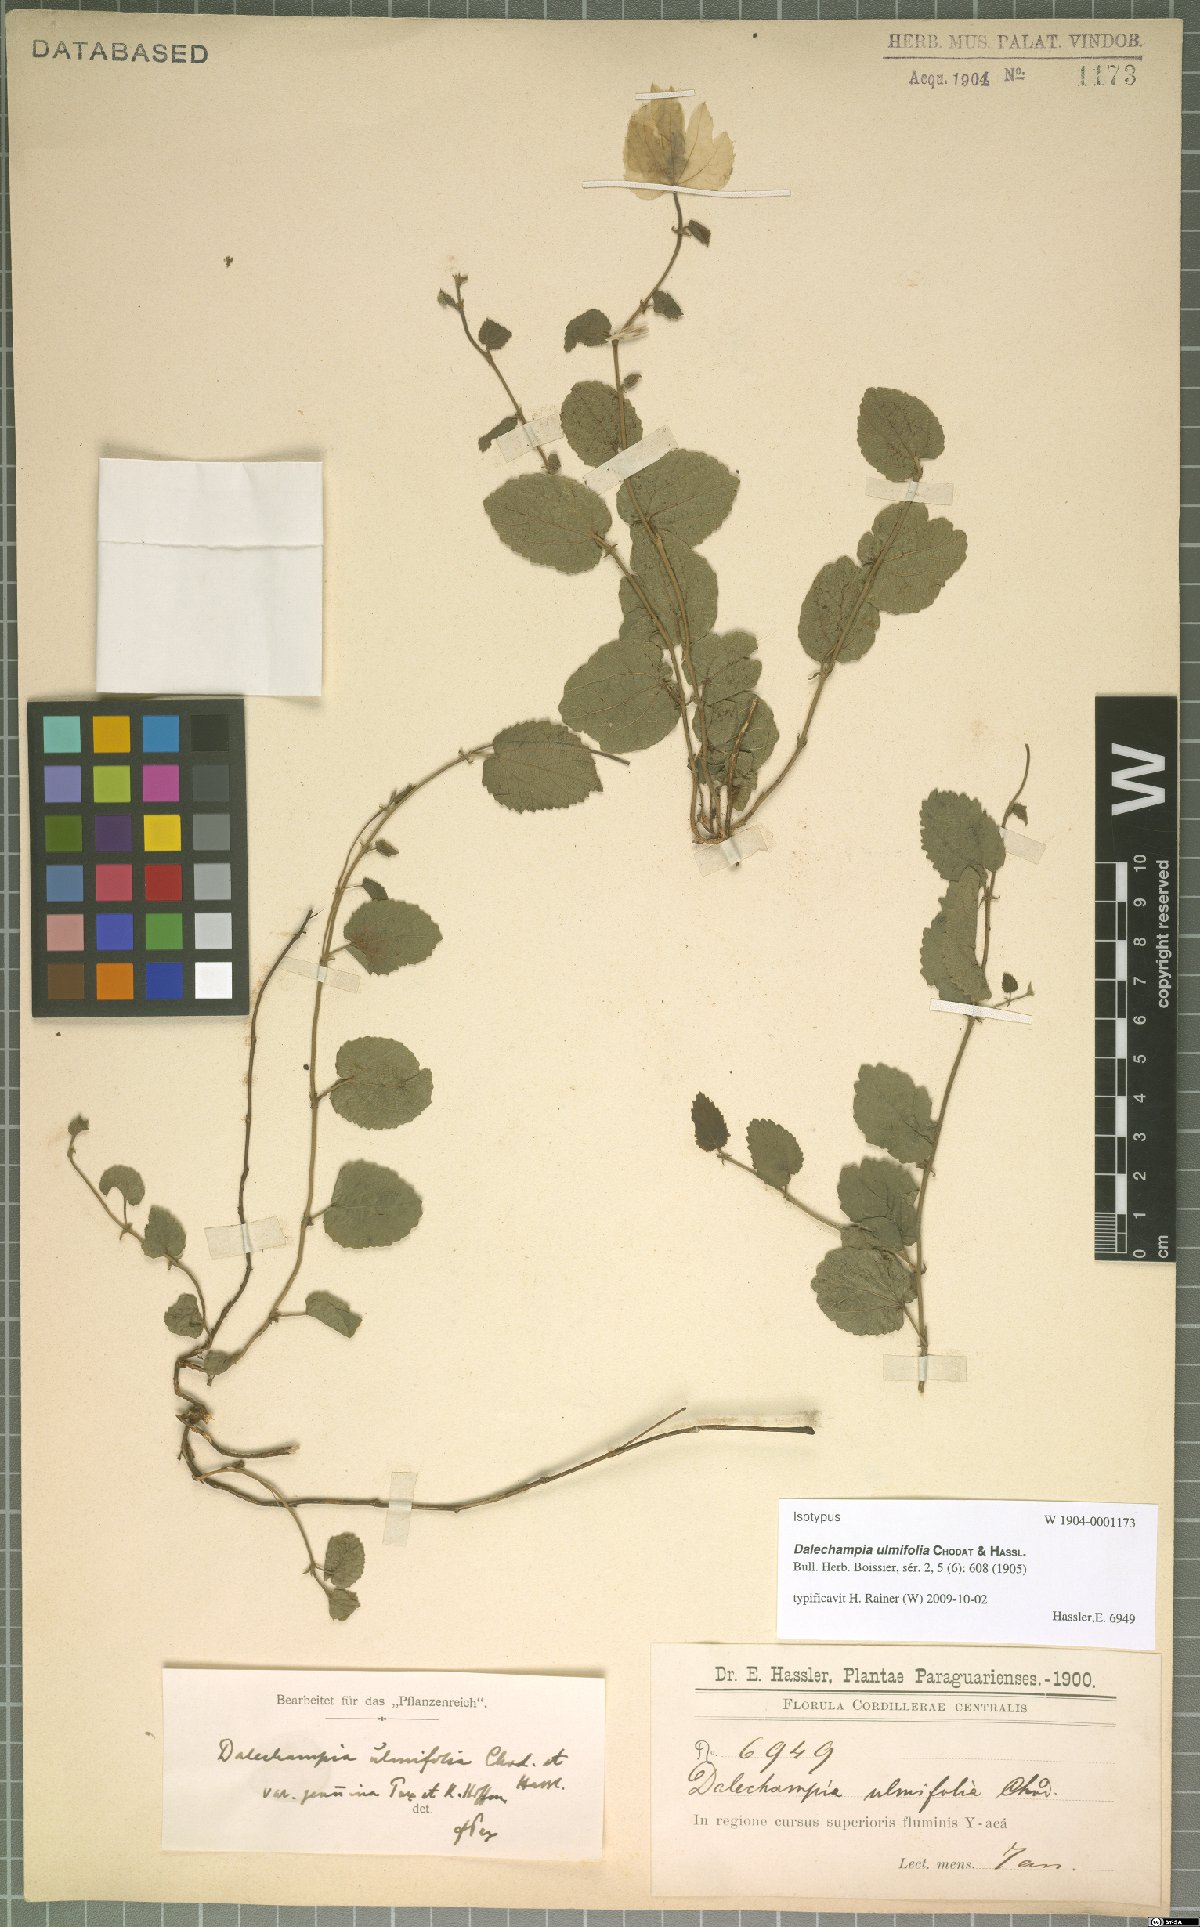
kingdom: Plantae
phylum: Tracheophyta
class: Magnoliopsida
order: Malpighiales
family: Euphorbiaceae
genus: Dalechampia
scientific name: Dalechampia ulmifolia
